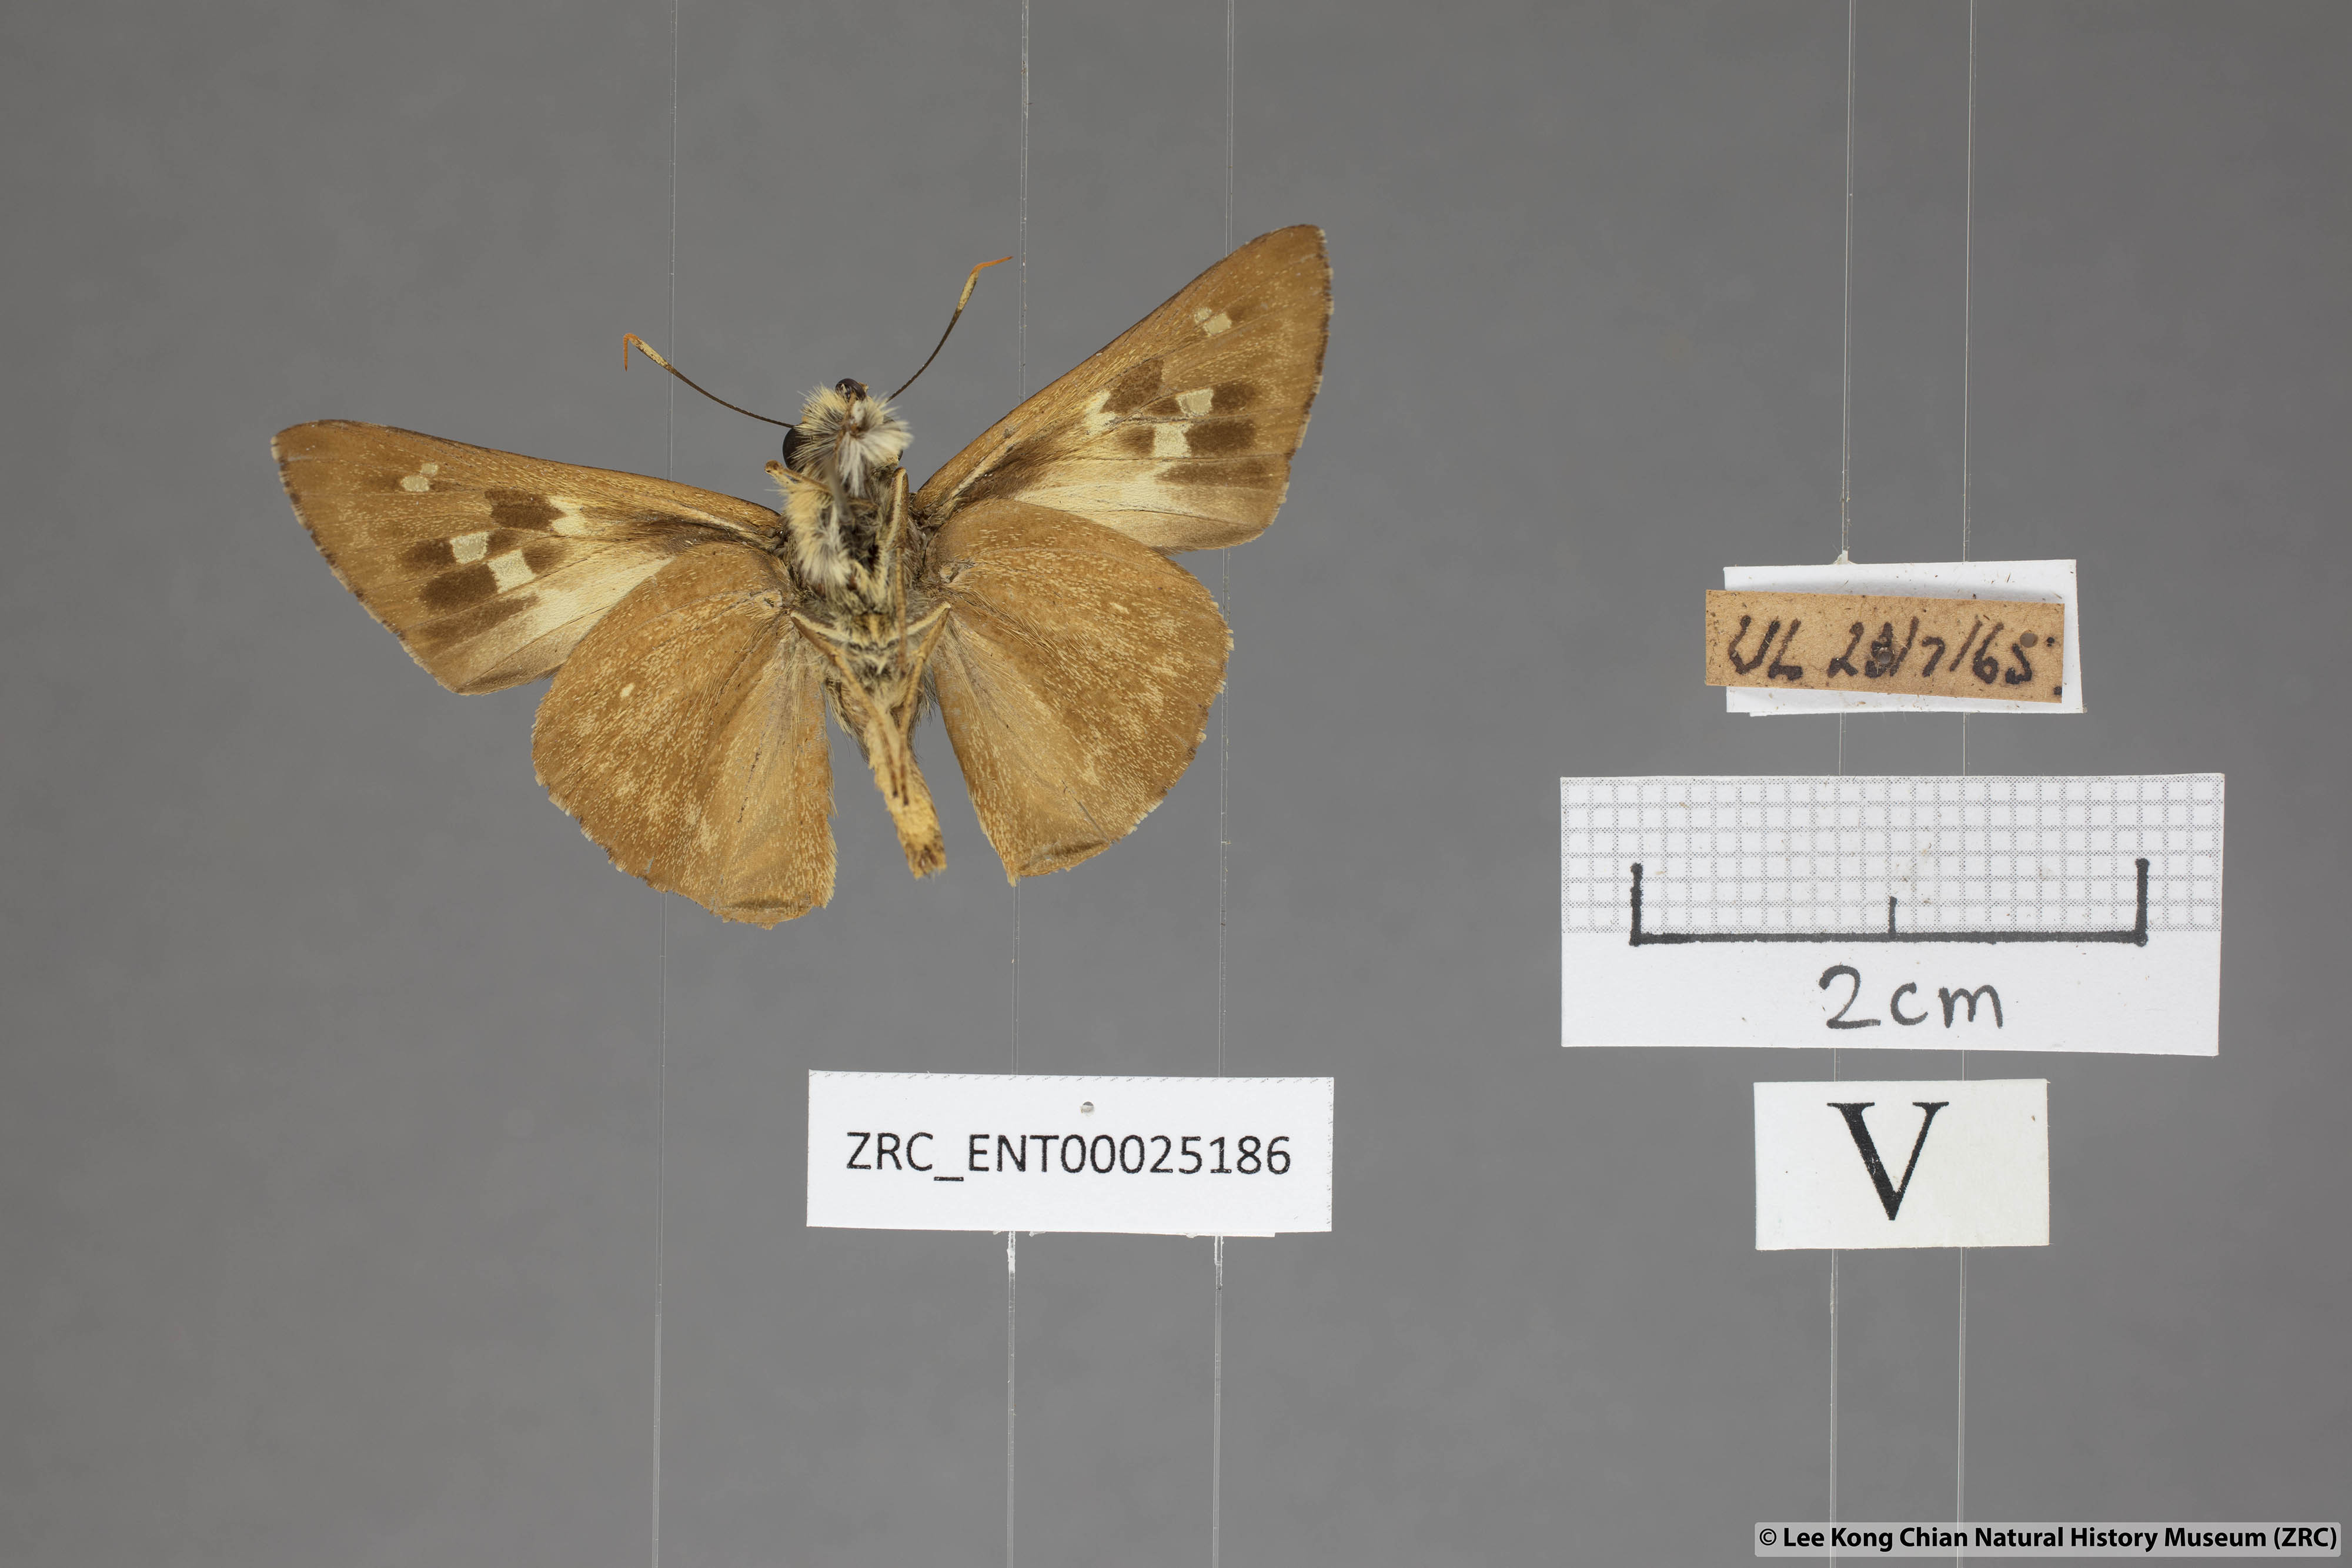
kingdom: Animalia
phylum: Arthropoda
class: Insecta
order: Lepidoptera
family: Hesperiidae
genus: Pithauria
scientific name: Pithauria stramineipennis
